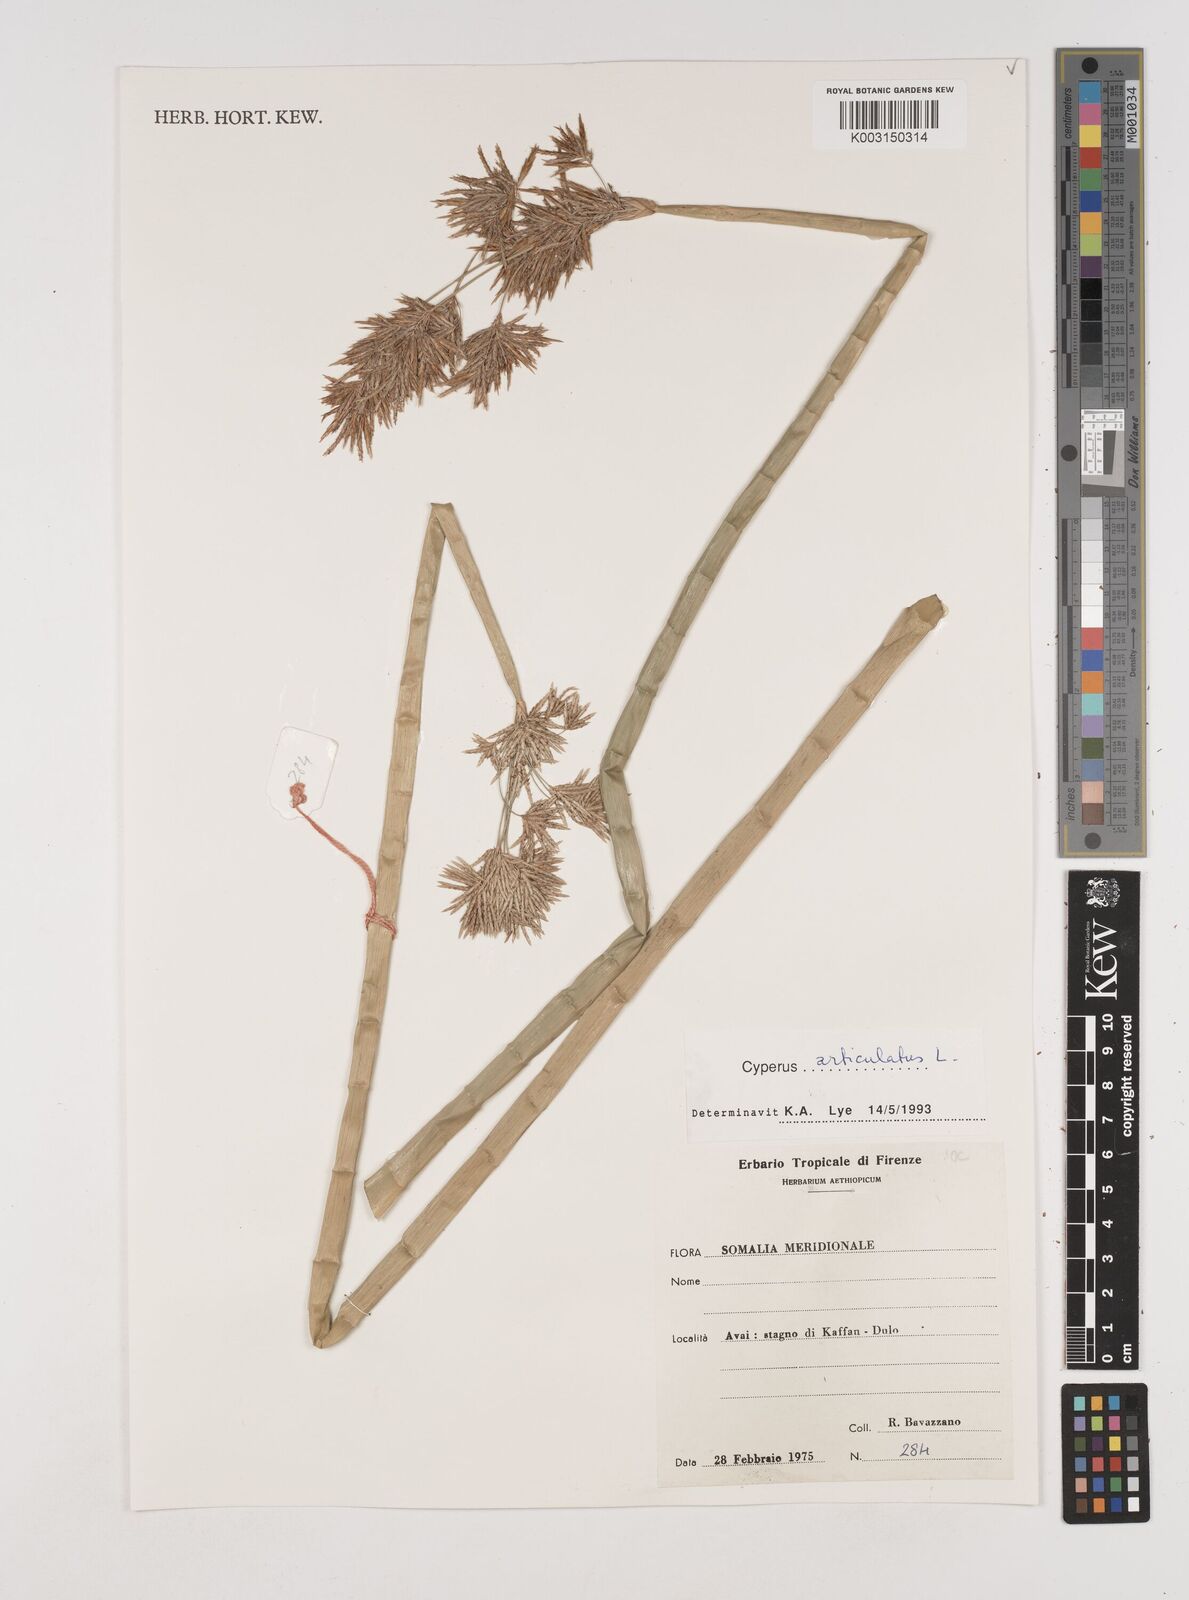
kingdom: Plantae
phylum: Tracheophyta
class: Liliopsida
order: Poales
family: Cyperaceae
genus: Cyperus
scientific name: Cyperus articulatus
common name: Jointed flatsedge
